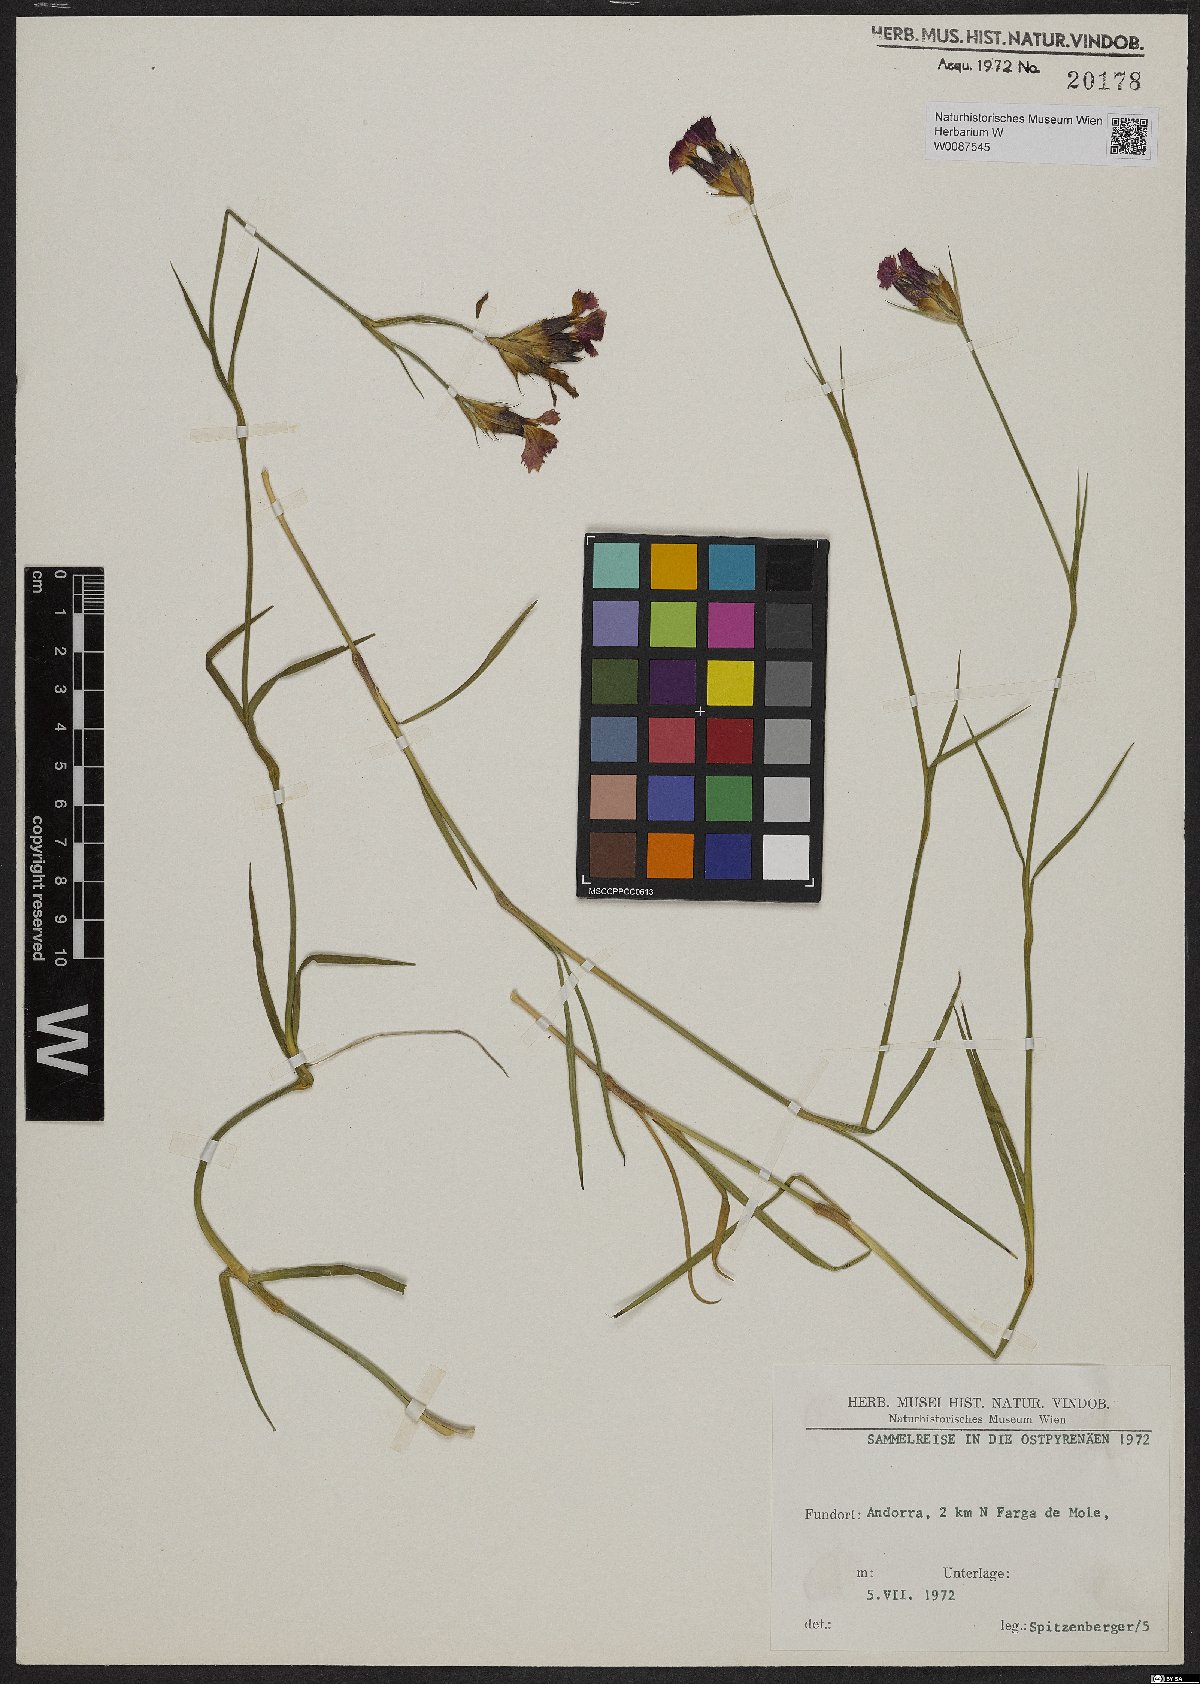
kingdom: Plantae
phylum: Tracheophyta
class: Magnoliopsida
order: Caryophyllales
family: Caryophyllaceae
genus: Dianthus
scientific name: Dianthus
